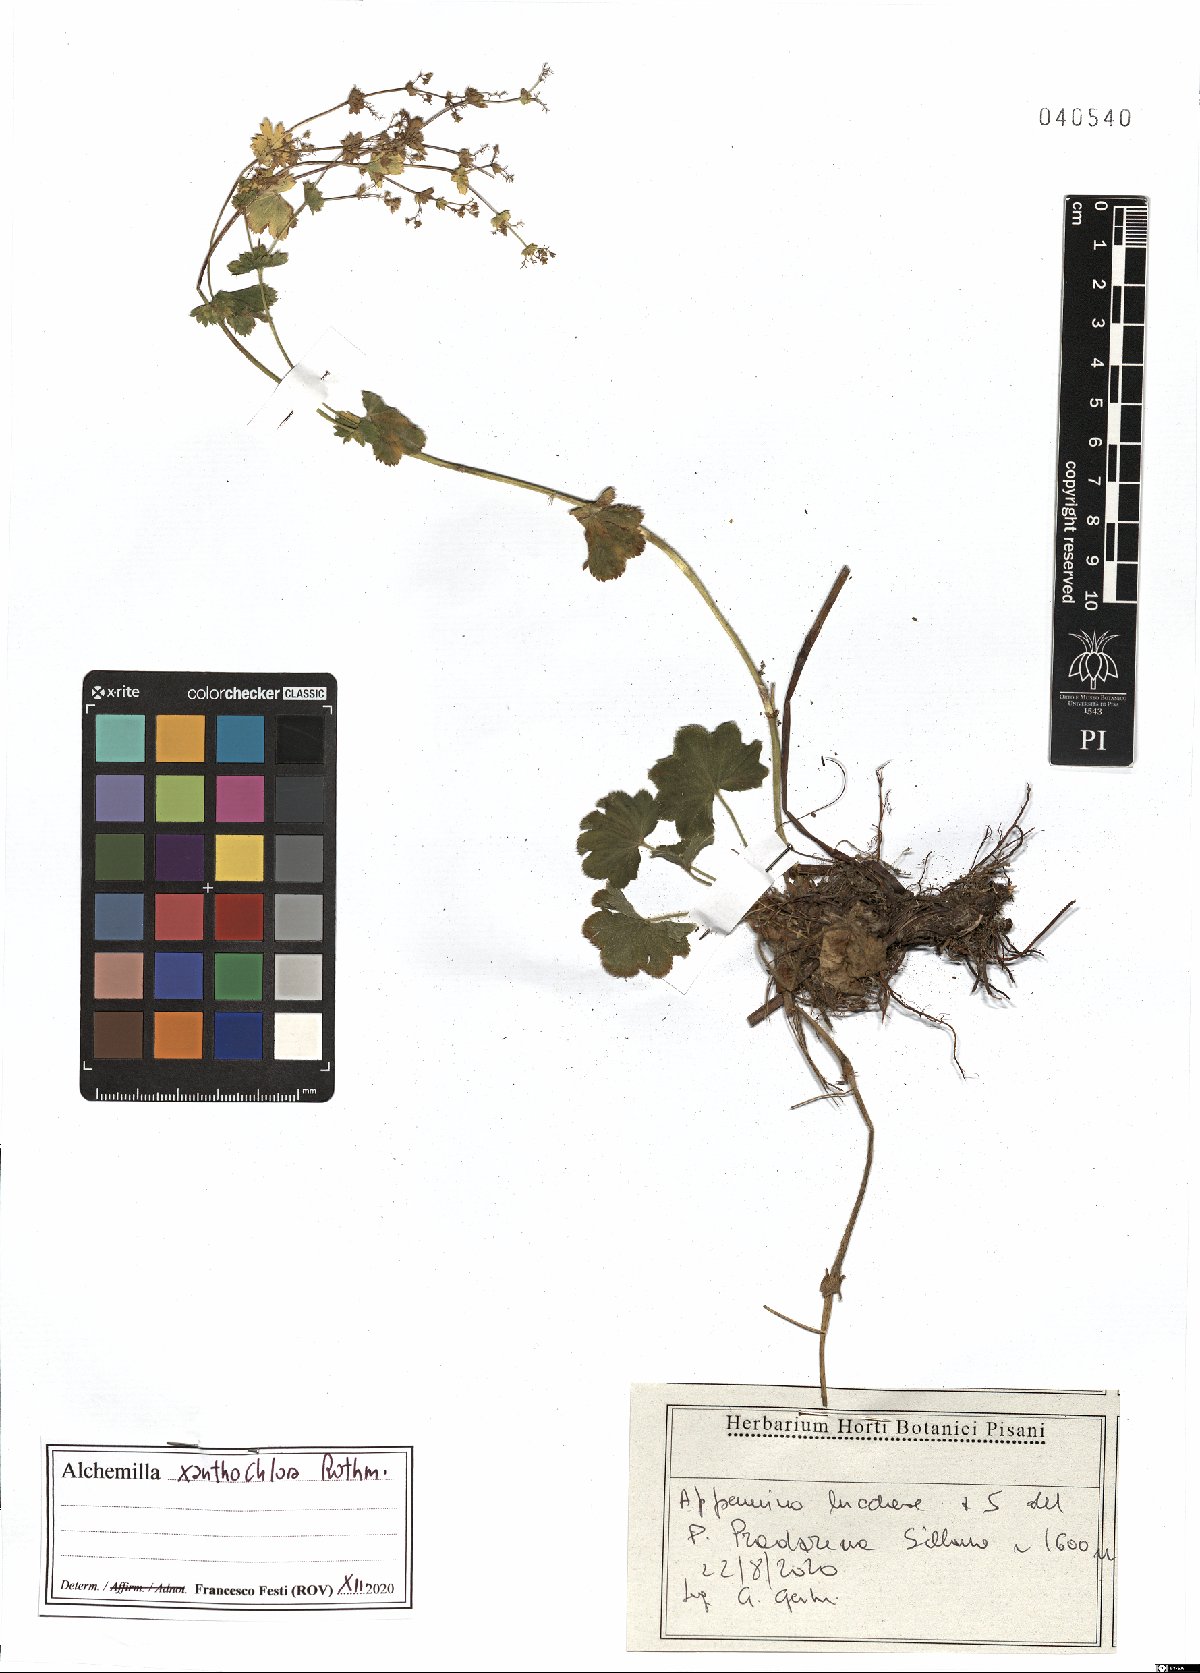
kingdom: Plantae
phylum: Tracheophyta
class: Magnoliopsida
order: Rosales
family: Rosaceae
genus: Alchemilla
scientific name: Alchemilla xanthochlora
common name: Intermediate lady's-mantle
